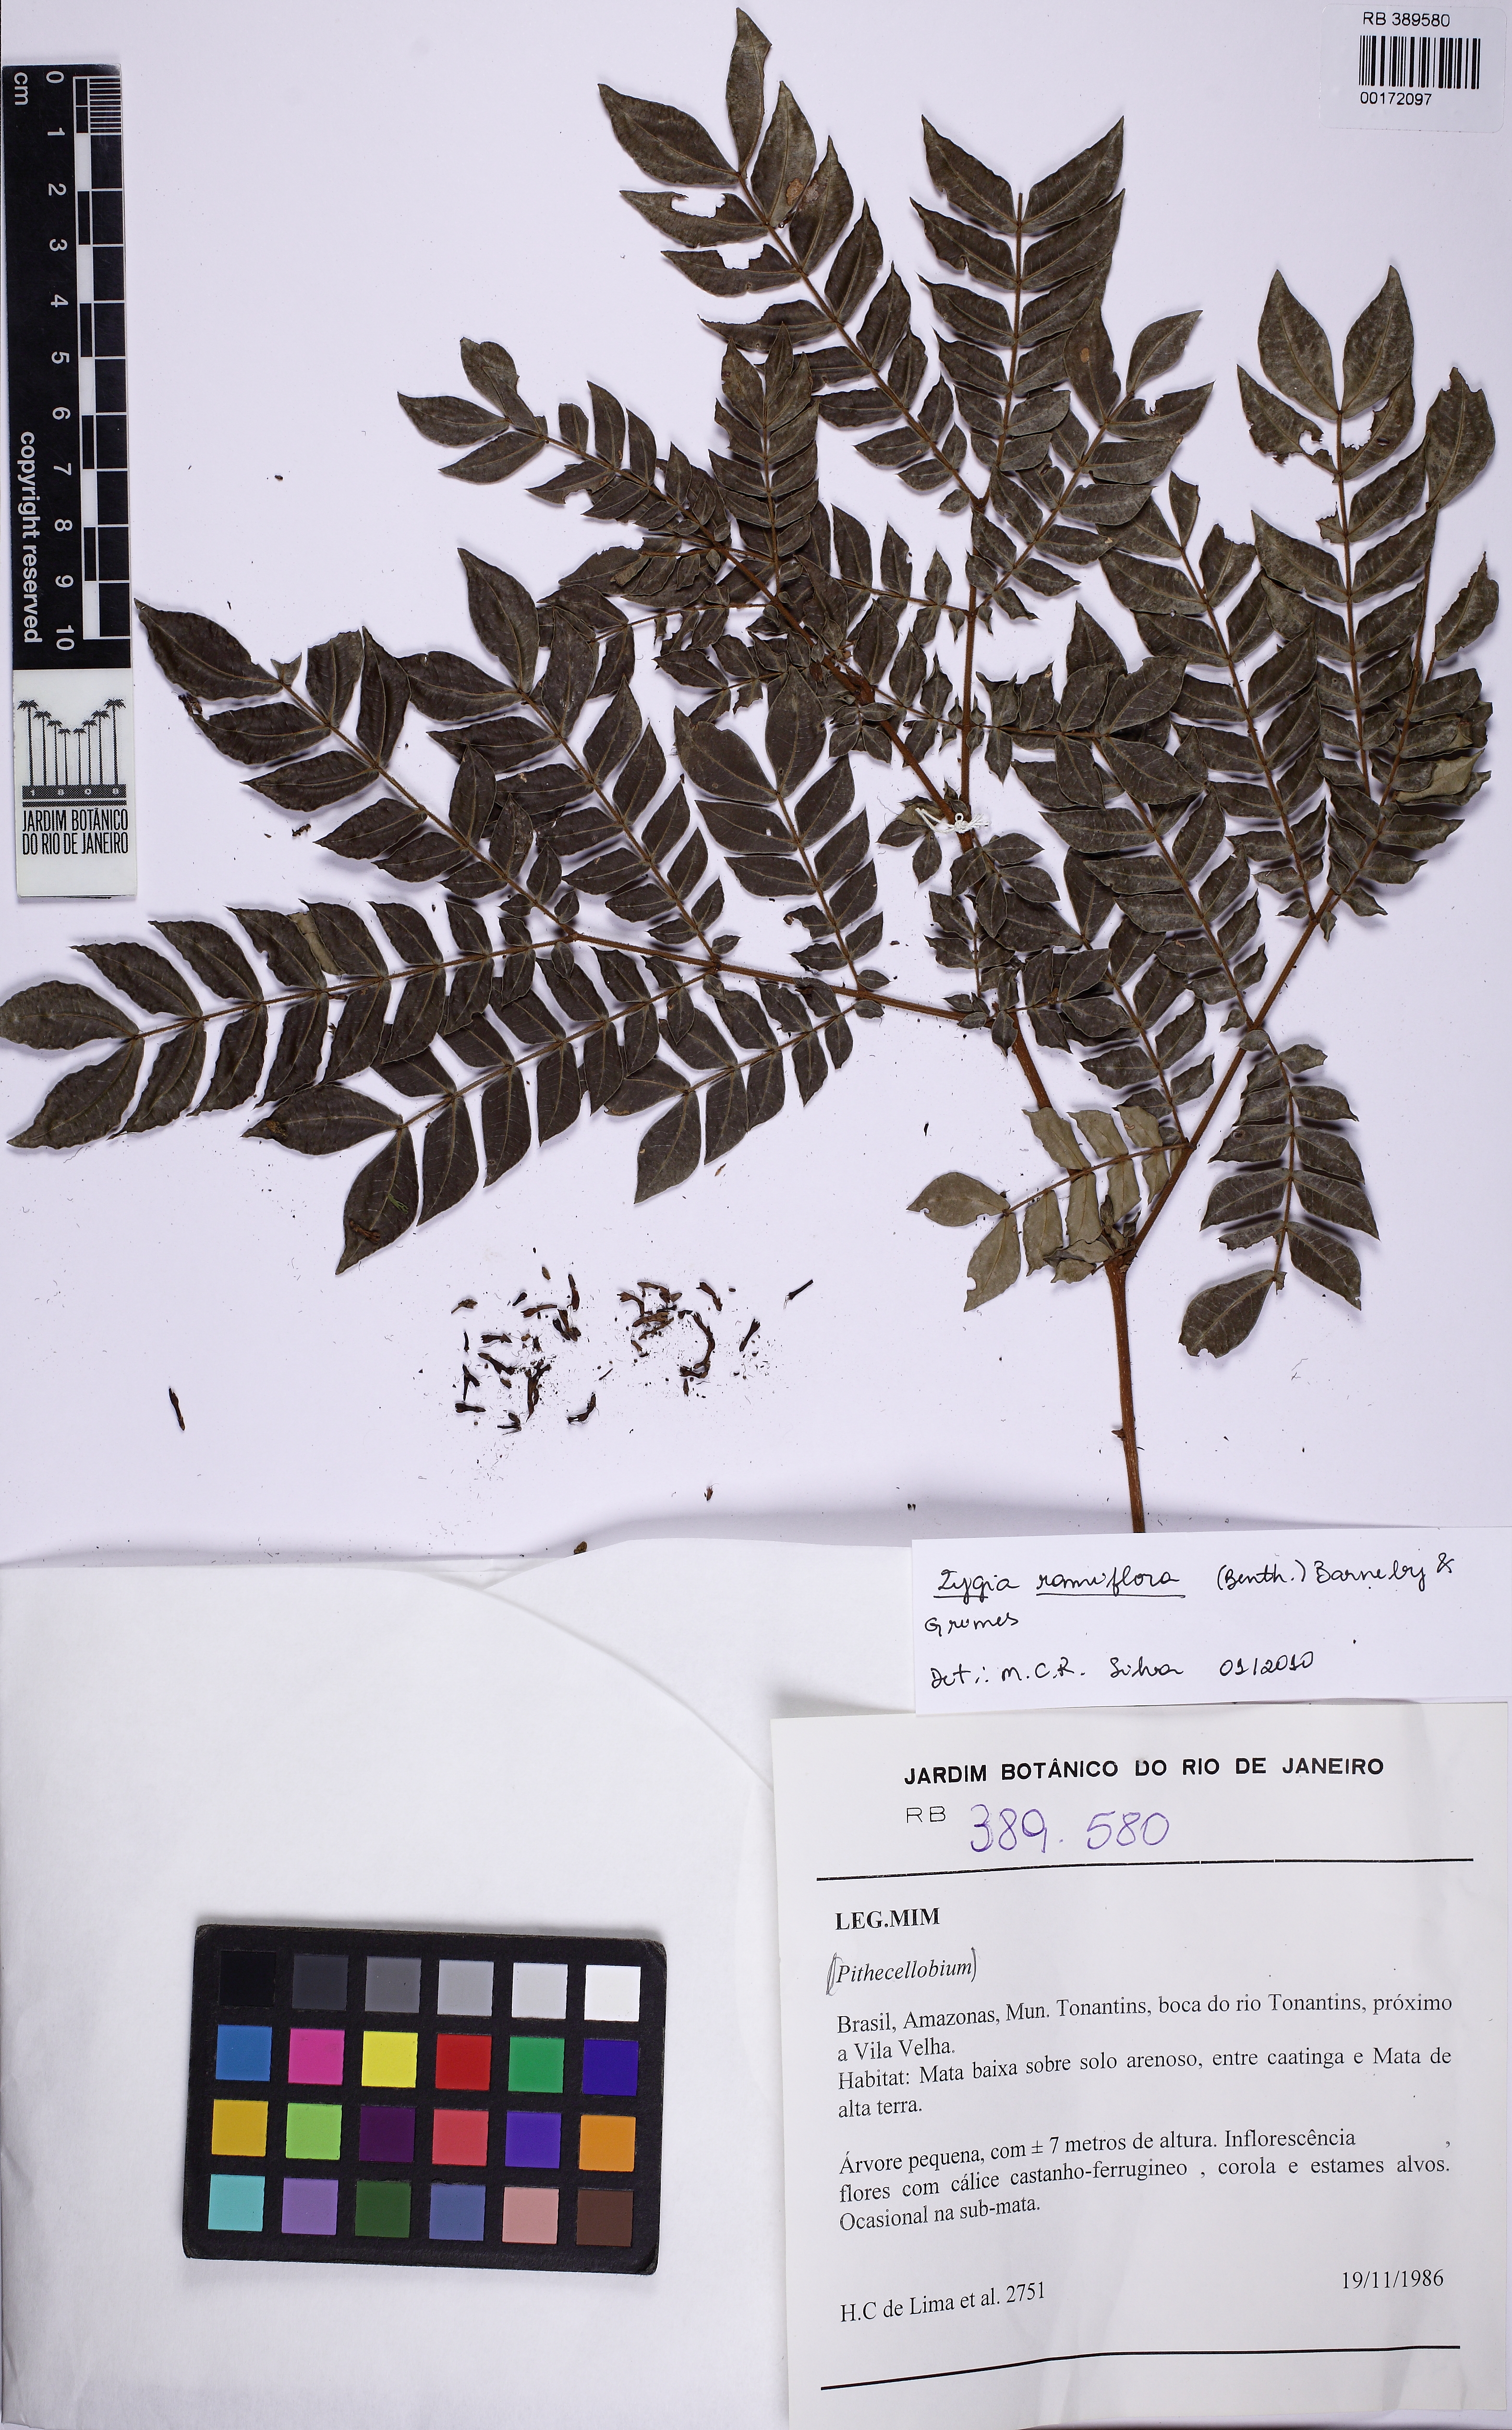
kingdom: Plantae
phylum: Tracheophyta
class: Magnoliopsida
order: Fabales
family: Fabaceae
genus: Zygia
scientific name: Zygia dinizii
